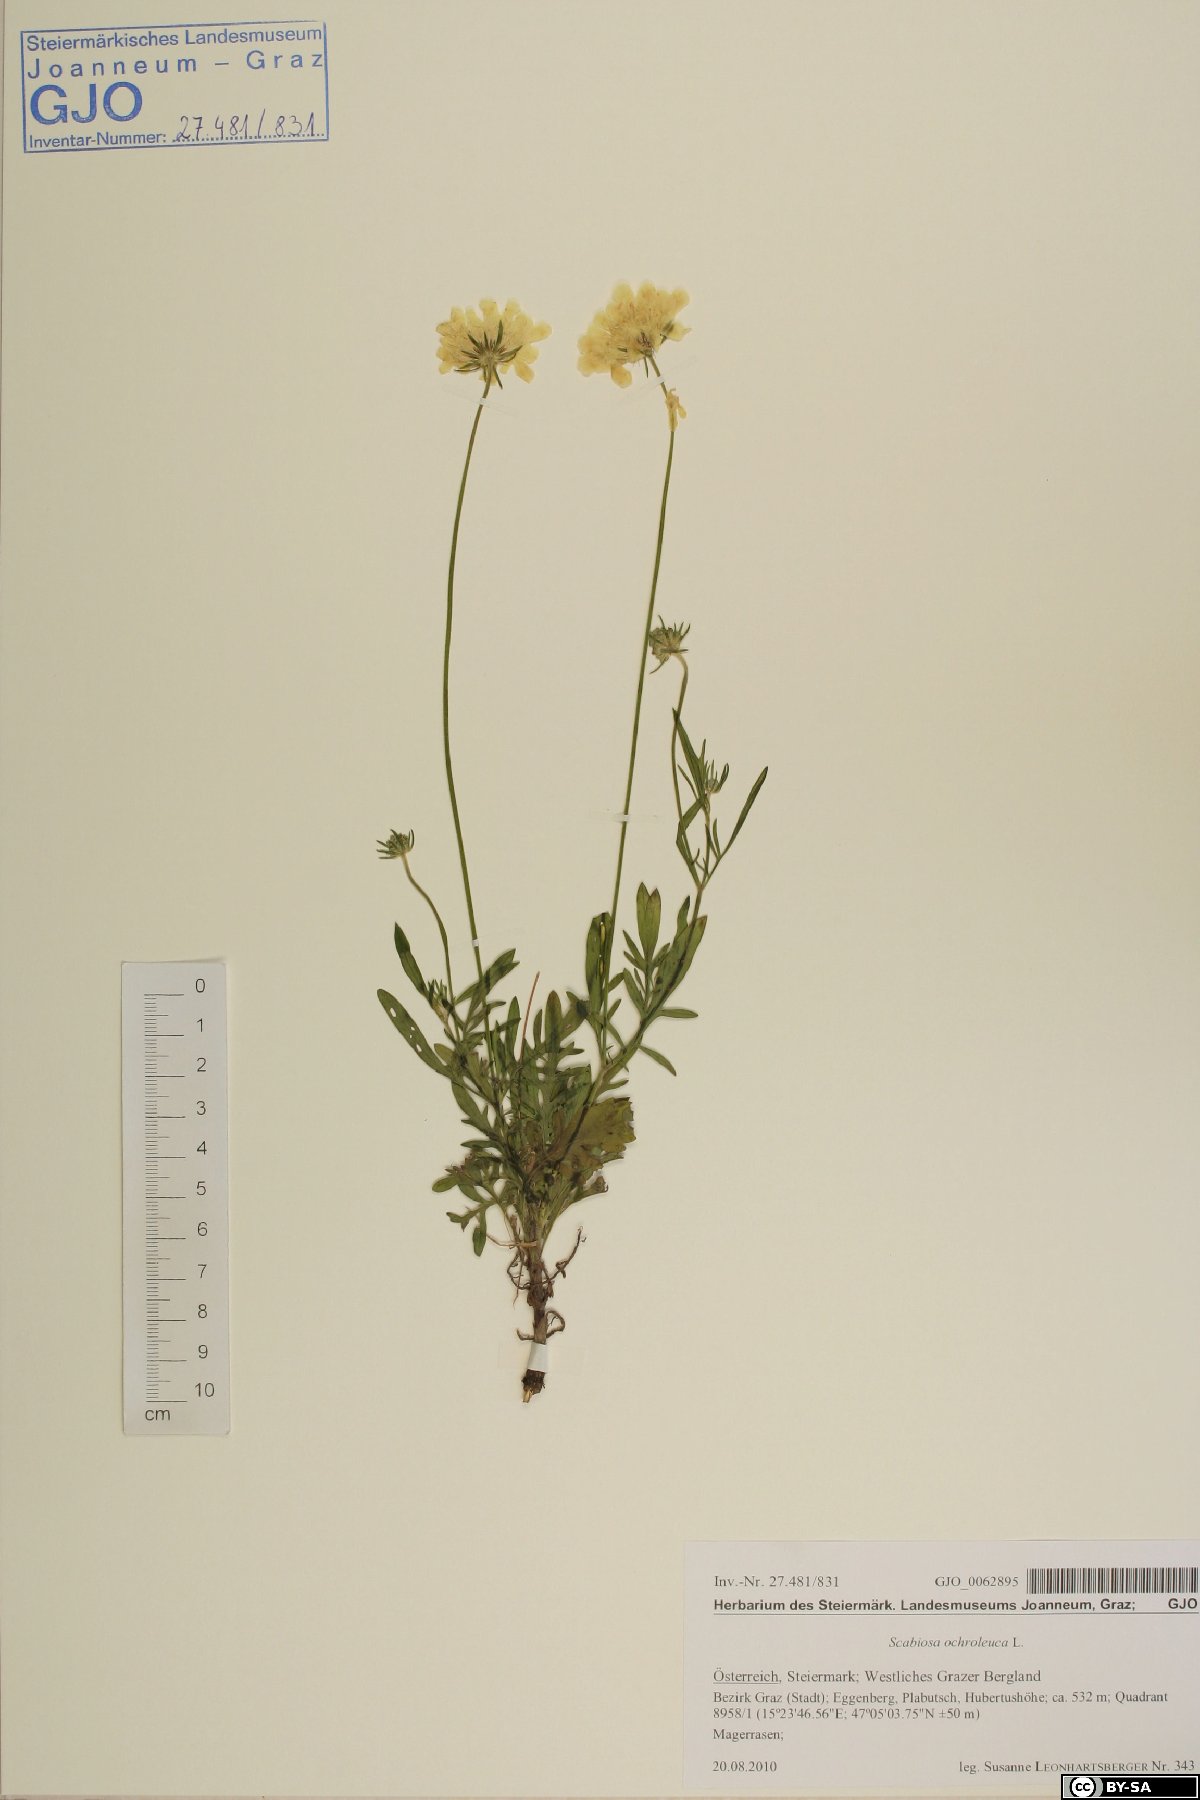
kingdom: Plantae
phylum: Tracheophyta
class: Magnoliopsida
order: Dipsacales
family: Caprifoliaceae
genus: Scabiosa
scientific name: Scabiosa ochroleuca
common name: Cream pincushions
